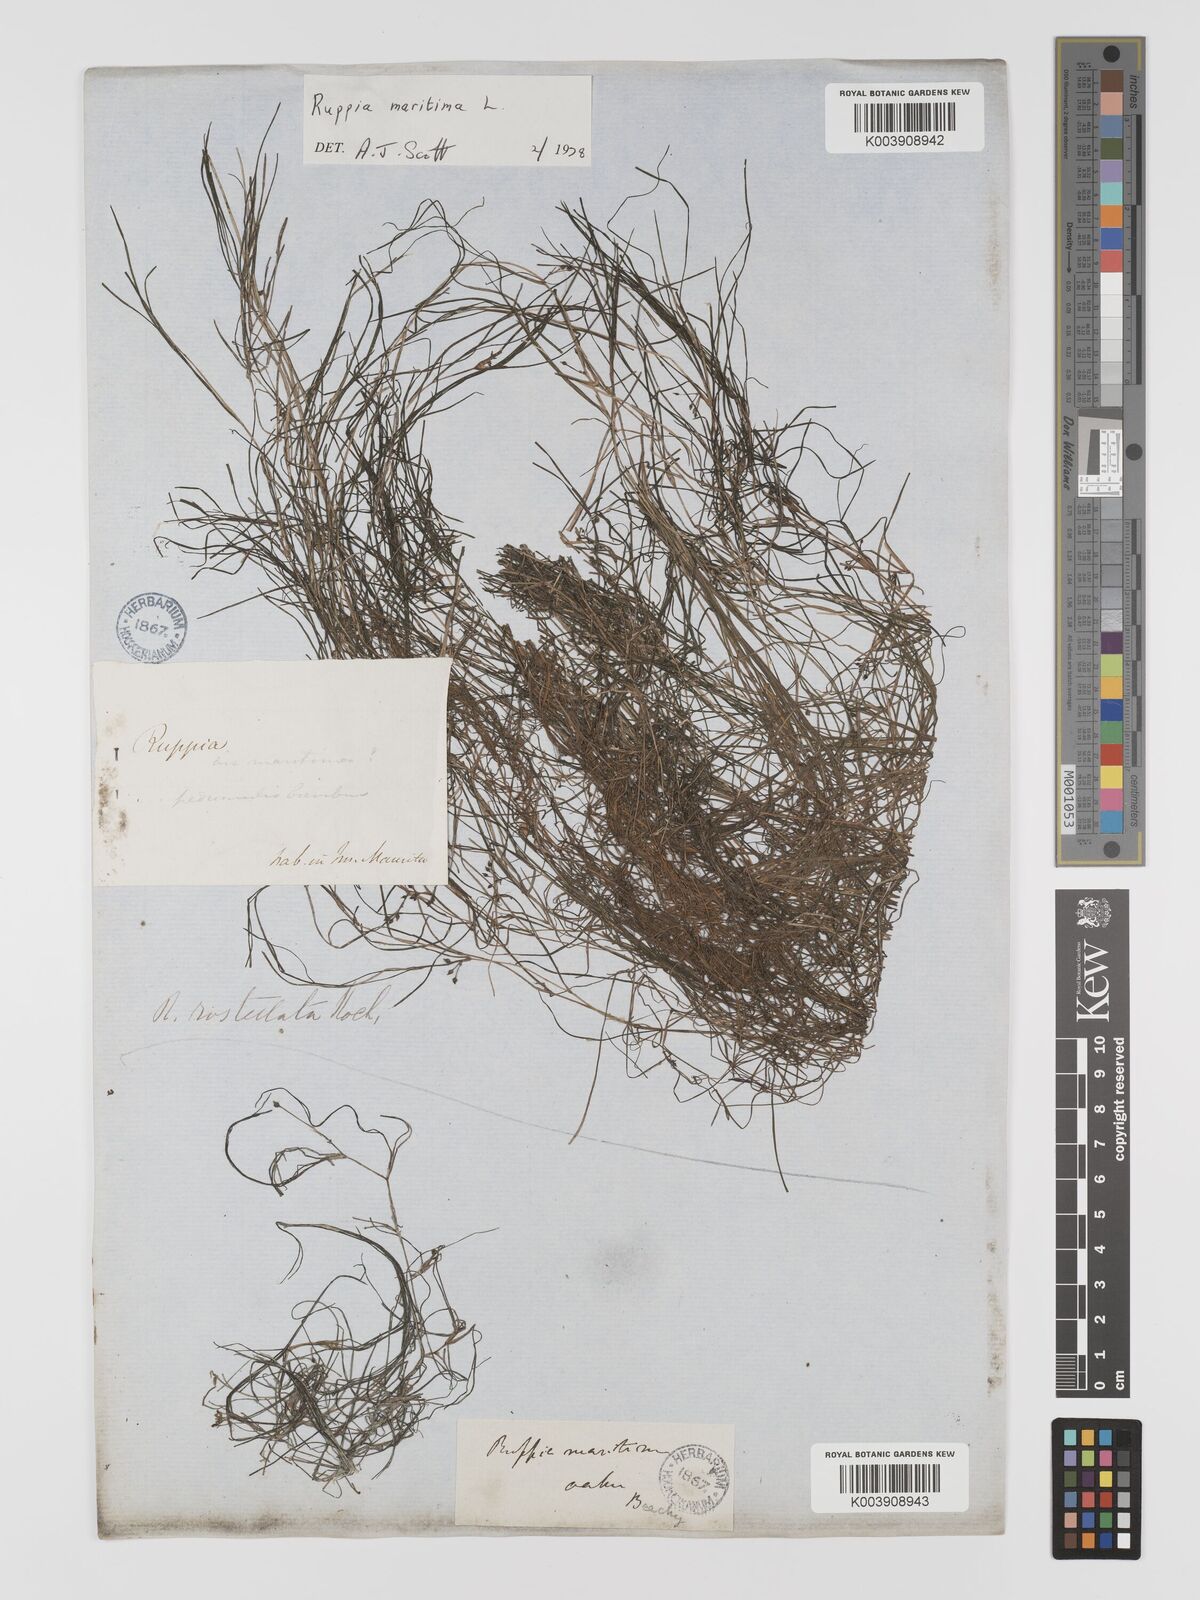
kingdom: Plantae
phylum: Tracheophyta
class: Liliopsida
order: Alismatales
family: Ruppiaceae
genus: Ruppia
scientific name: Ruppia maritima
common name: Beaked tasselweed
